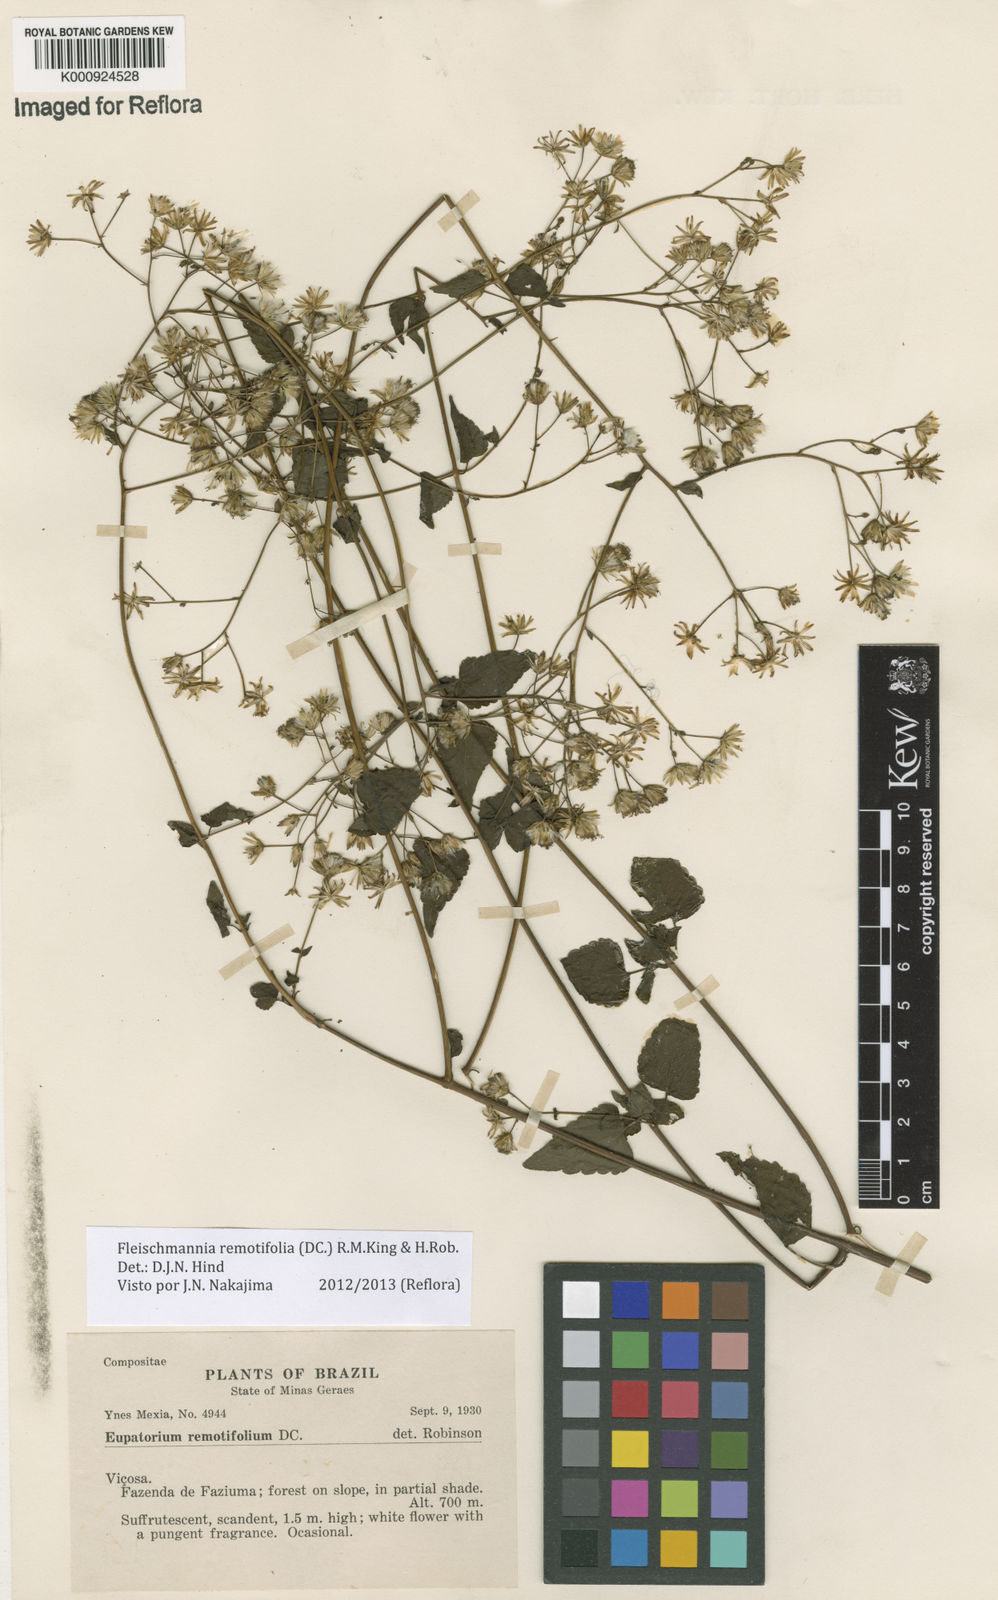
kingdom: Plantae
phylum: Tracheophyta
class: Magnoliopsida
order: Asterales
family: Asteraceae
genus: Fleischmannia
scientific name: Fleischmannia remotifolia
